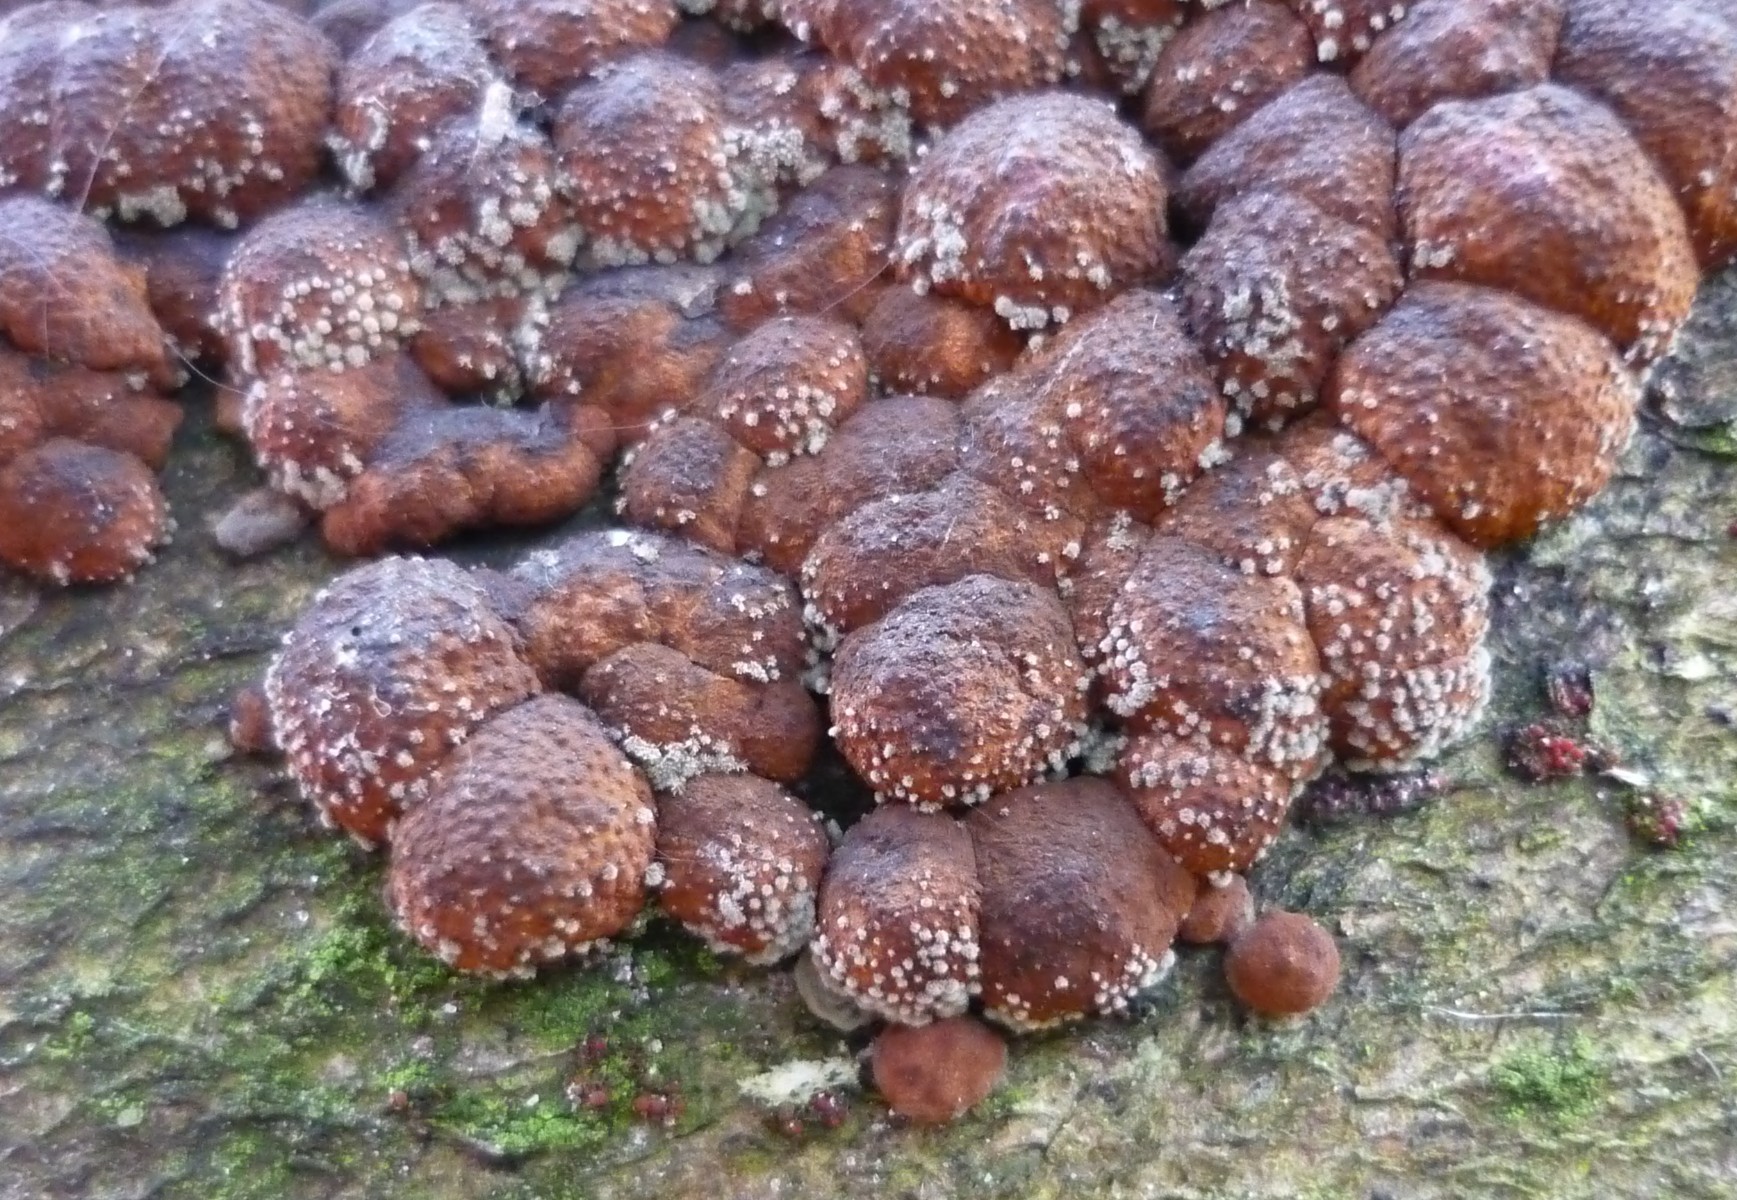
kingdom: Fungi
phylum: Ascomycota
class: Sordariomycetes
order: Xylariales
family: Hypoxylaceae
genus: Hypoxylon
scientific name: Hypoxylon fragiforme
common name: kuljordbær
